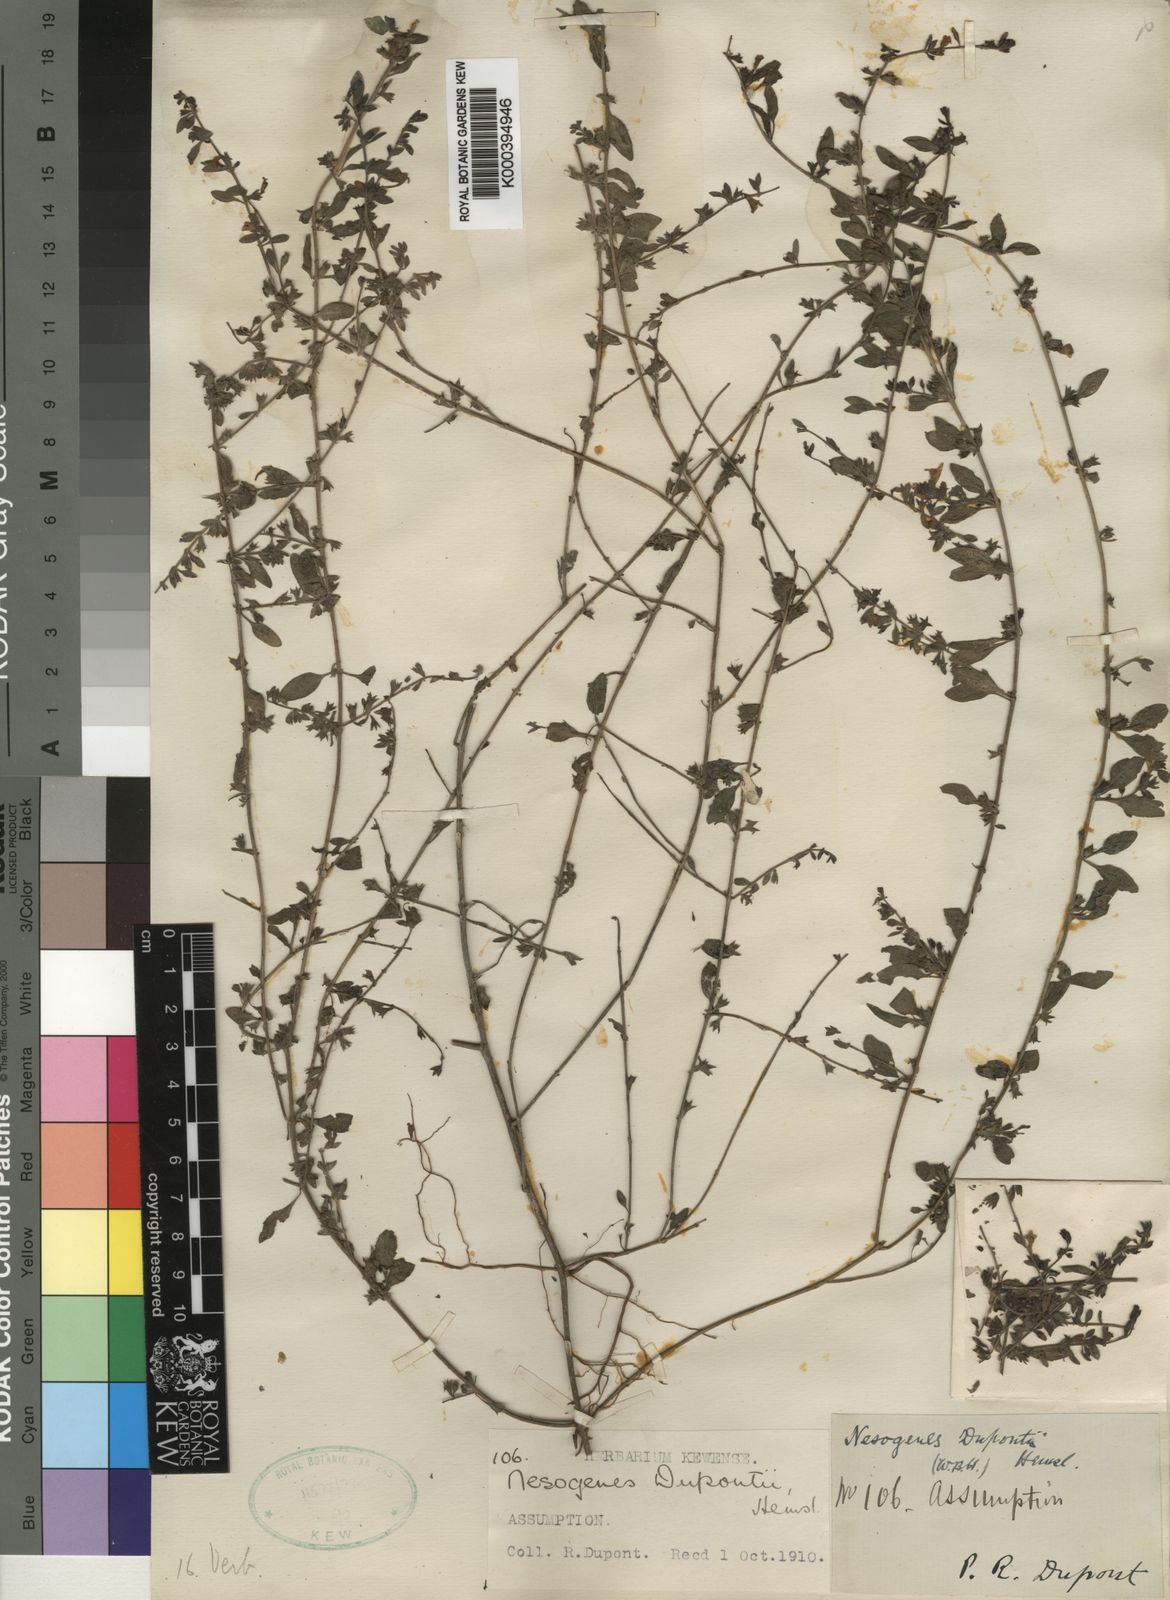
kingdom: Plantae
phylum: Tracheophyta
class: Magnoliopsida
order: Lamiales
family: Orobanchaceae
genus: Nesogenes
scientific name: Nesogenes prostrata
